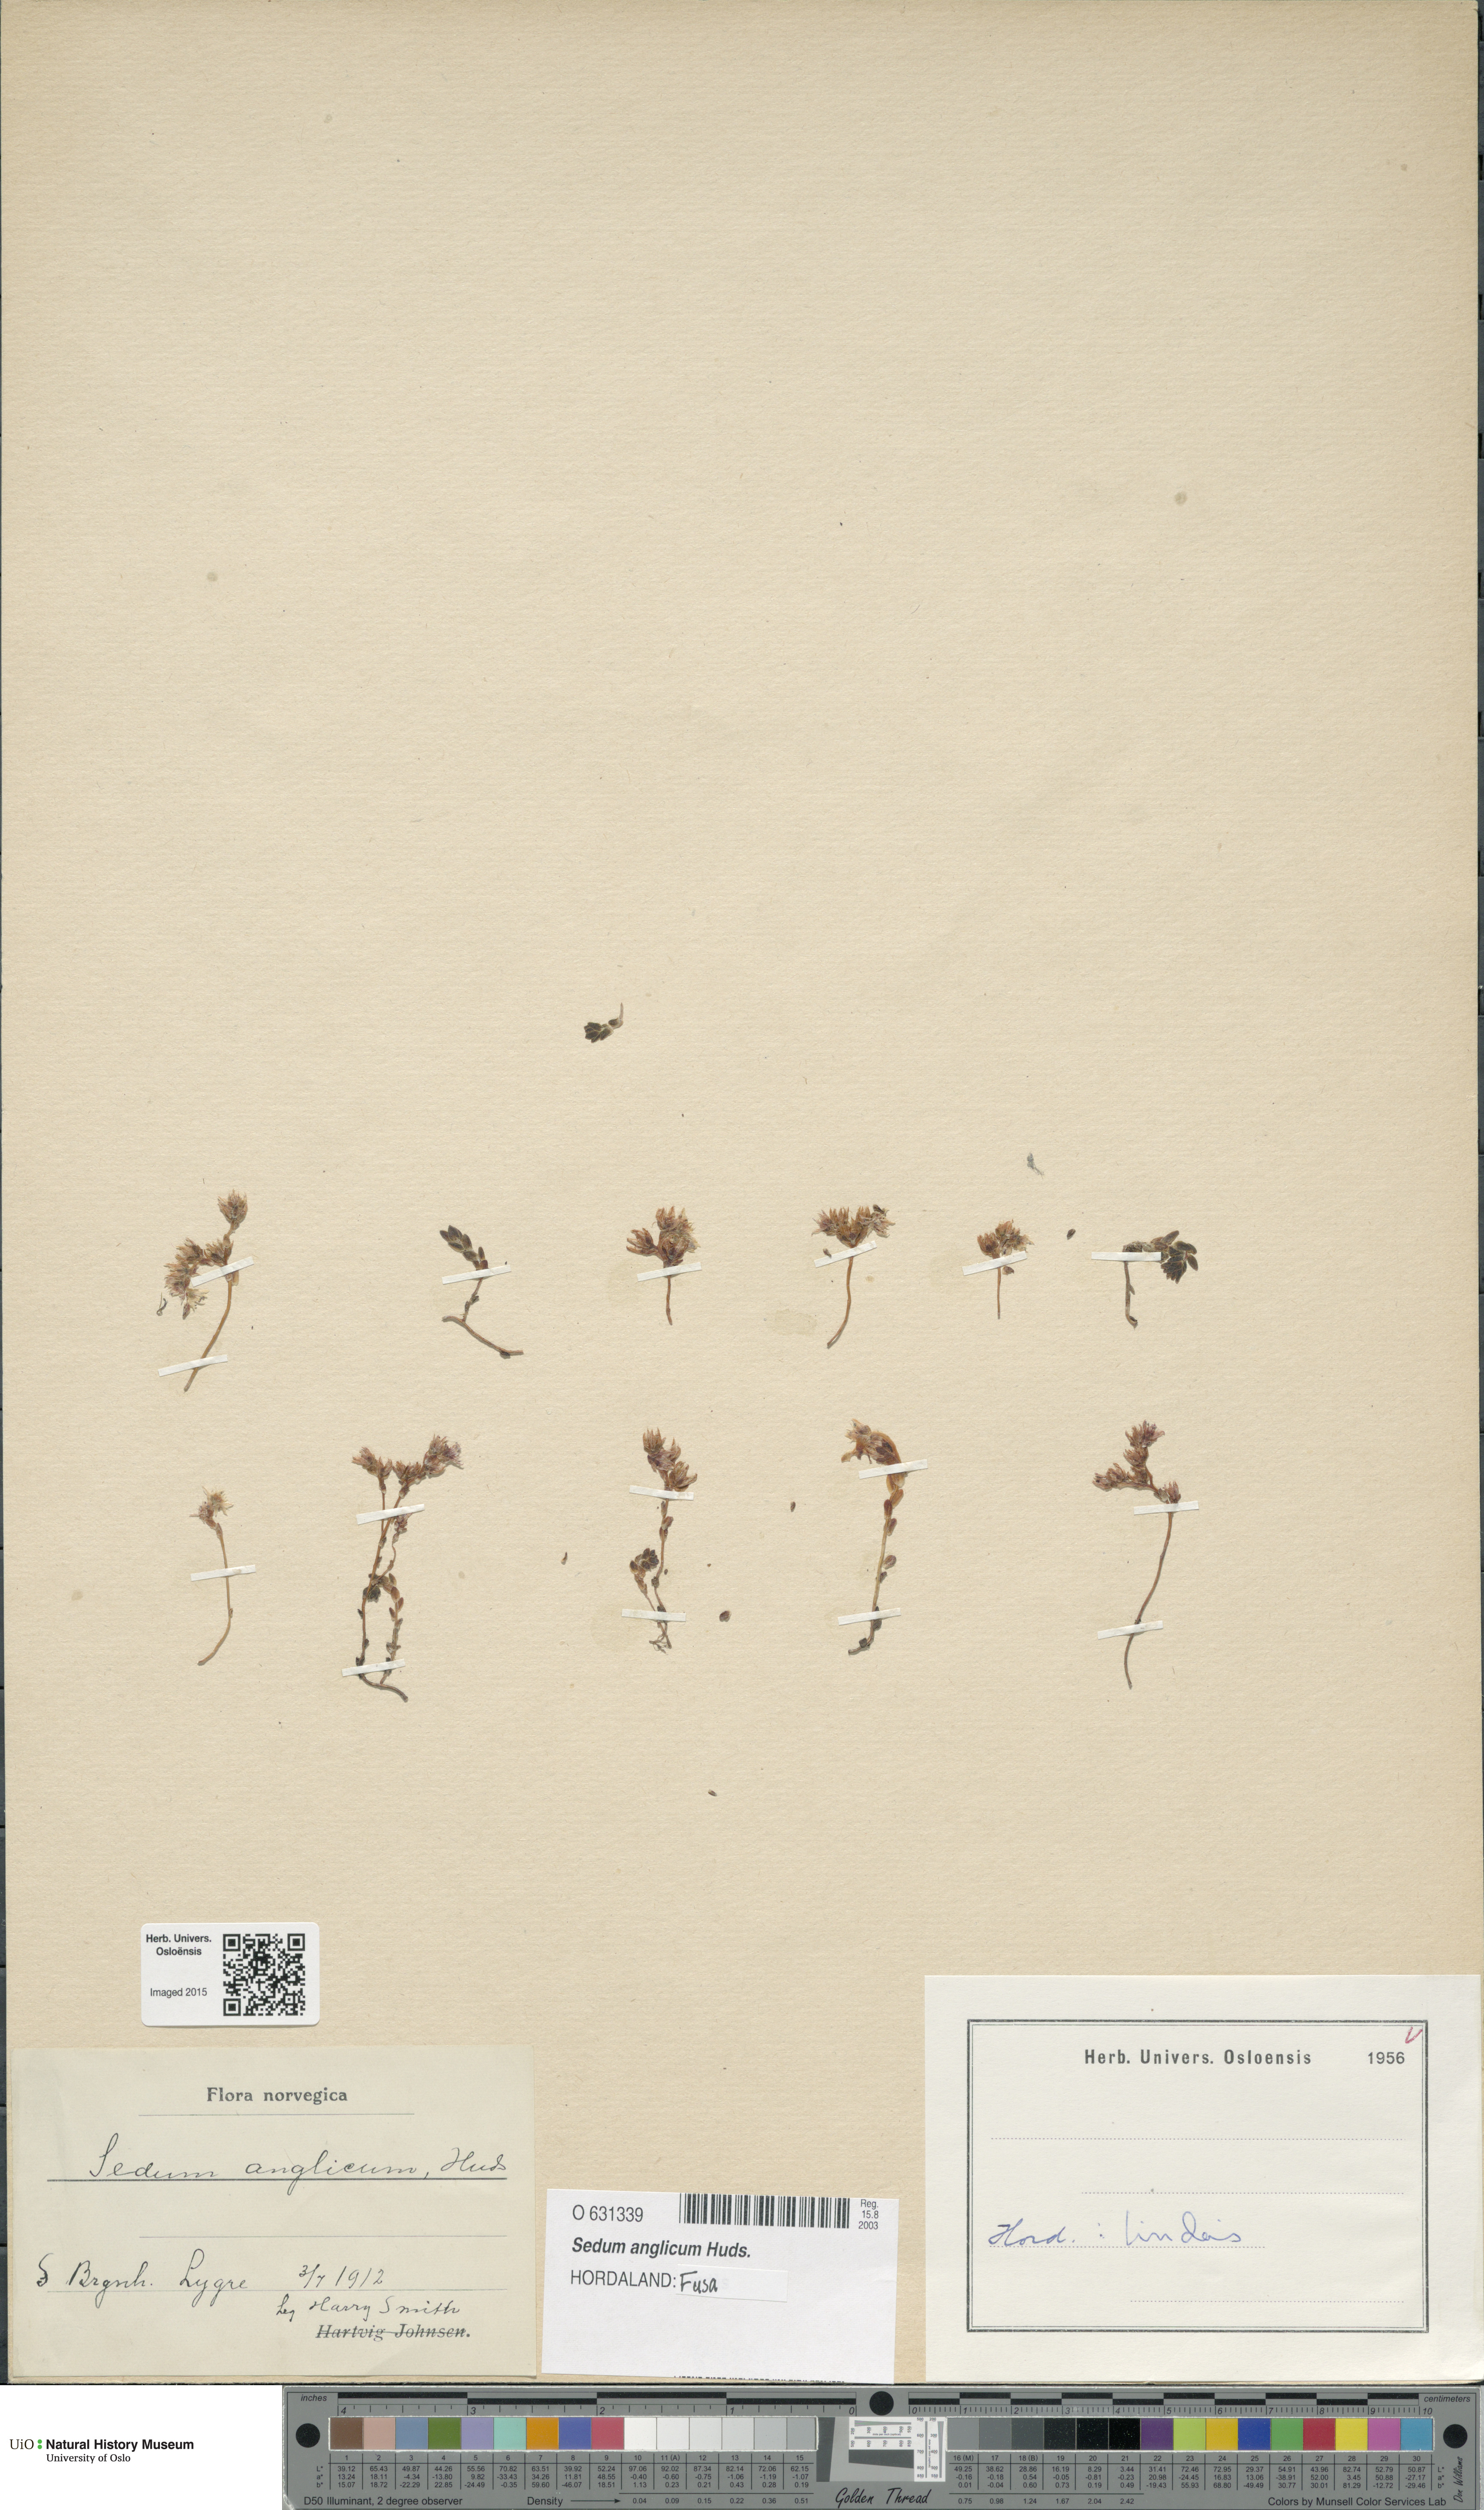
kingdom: Plantae
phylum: Tracheophyta
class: Magnoliopsida
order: Saxifragales
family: Crassulaceae
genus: Sedum
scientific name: Sedum anglicum
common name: English stonecrop
